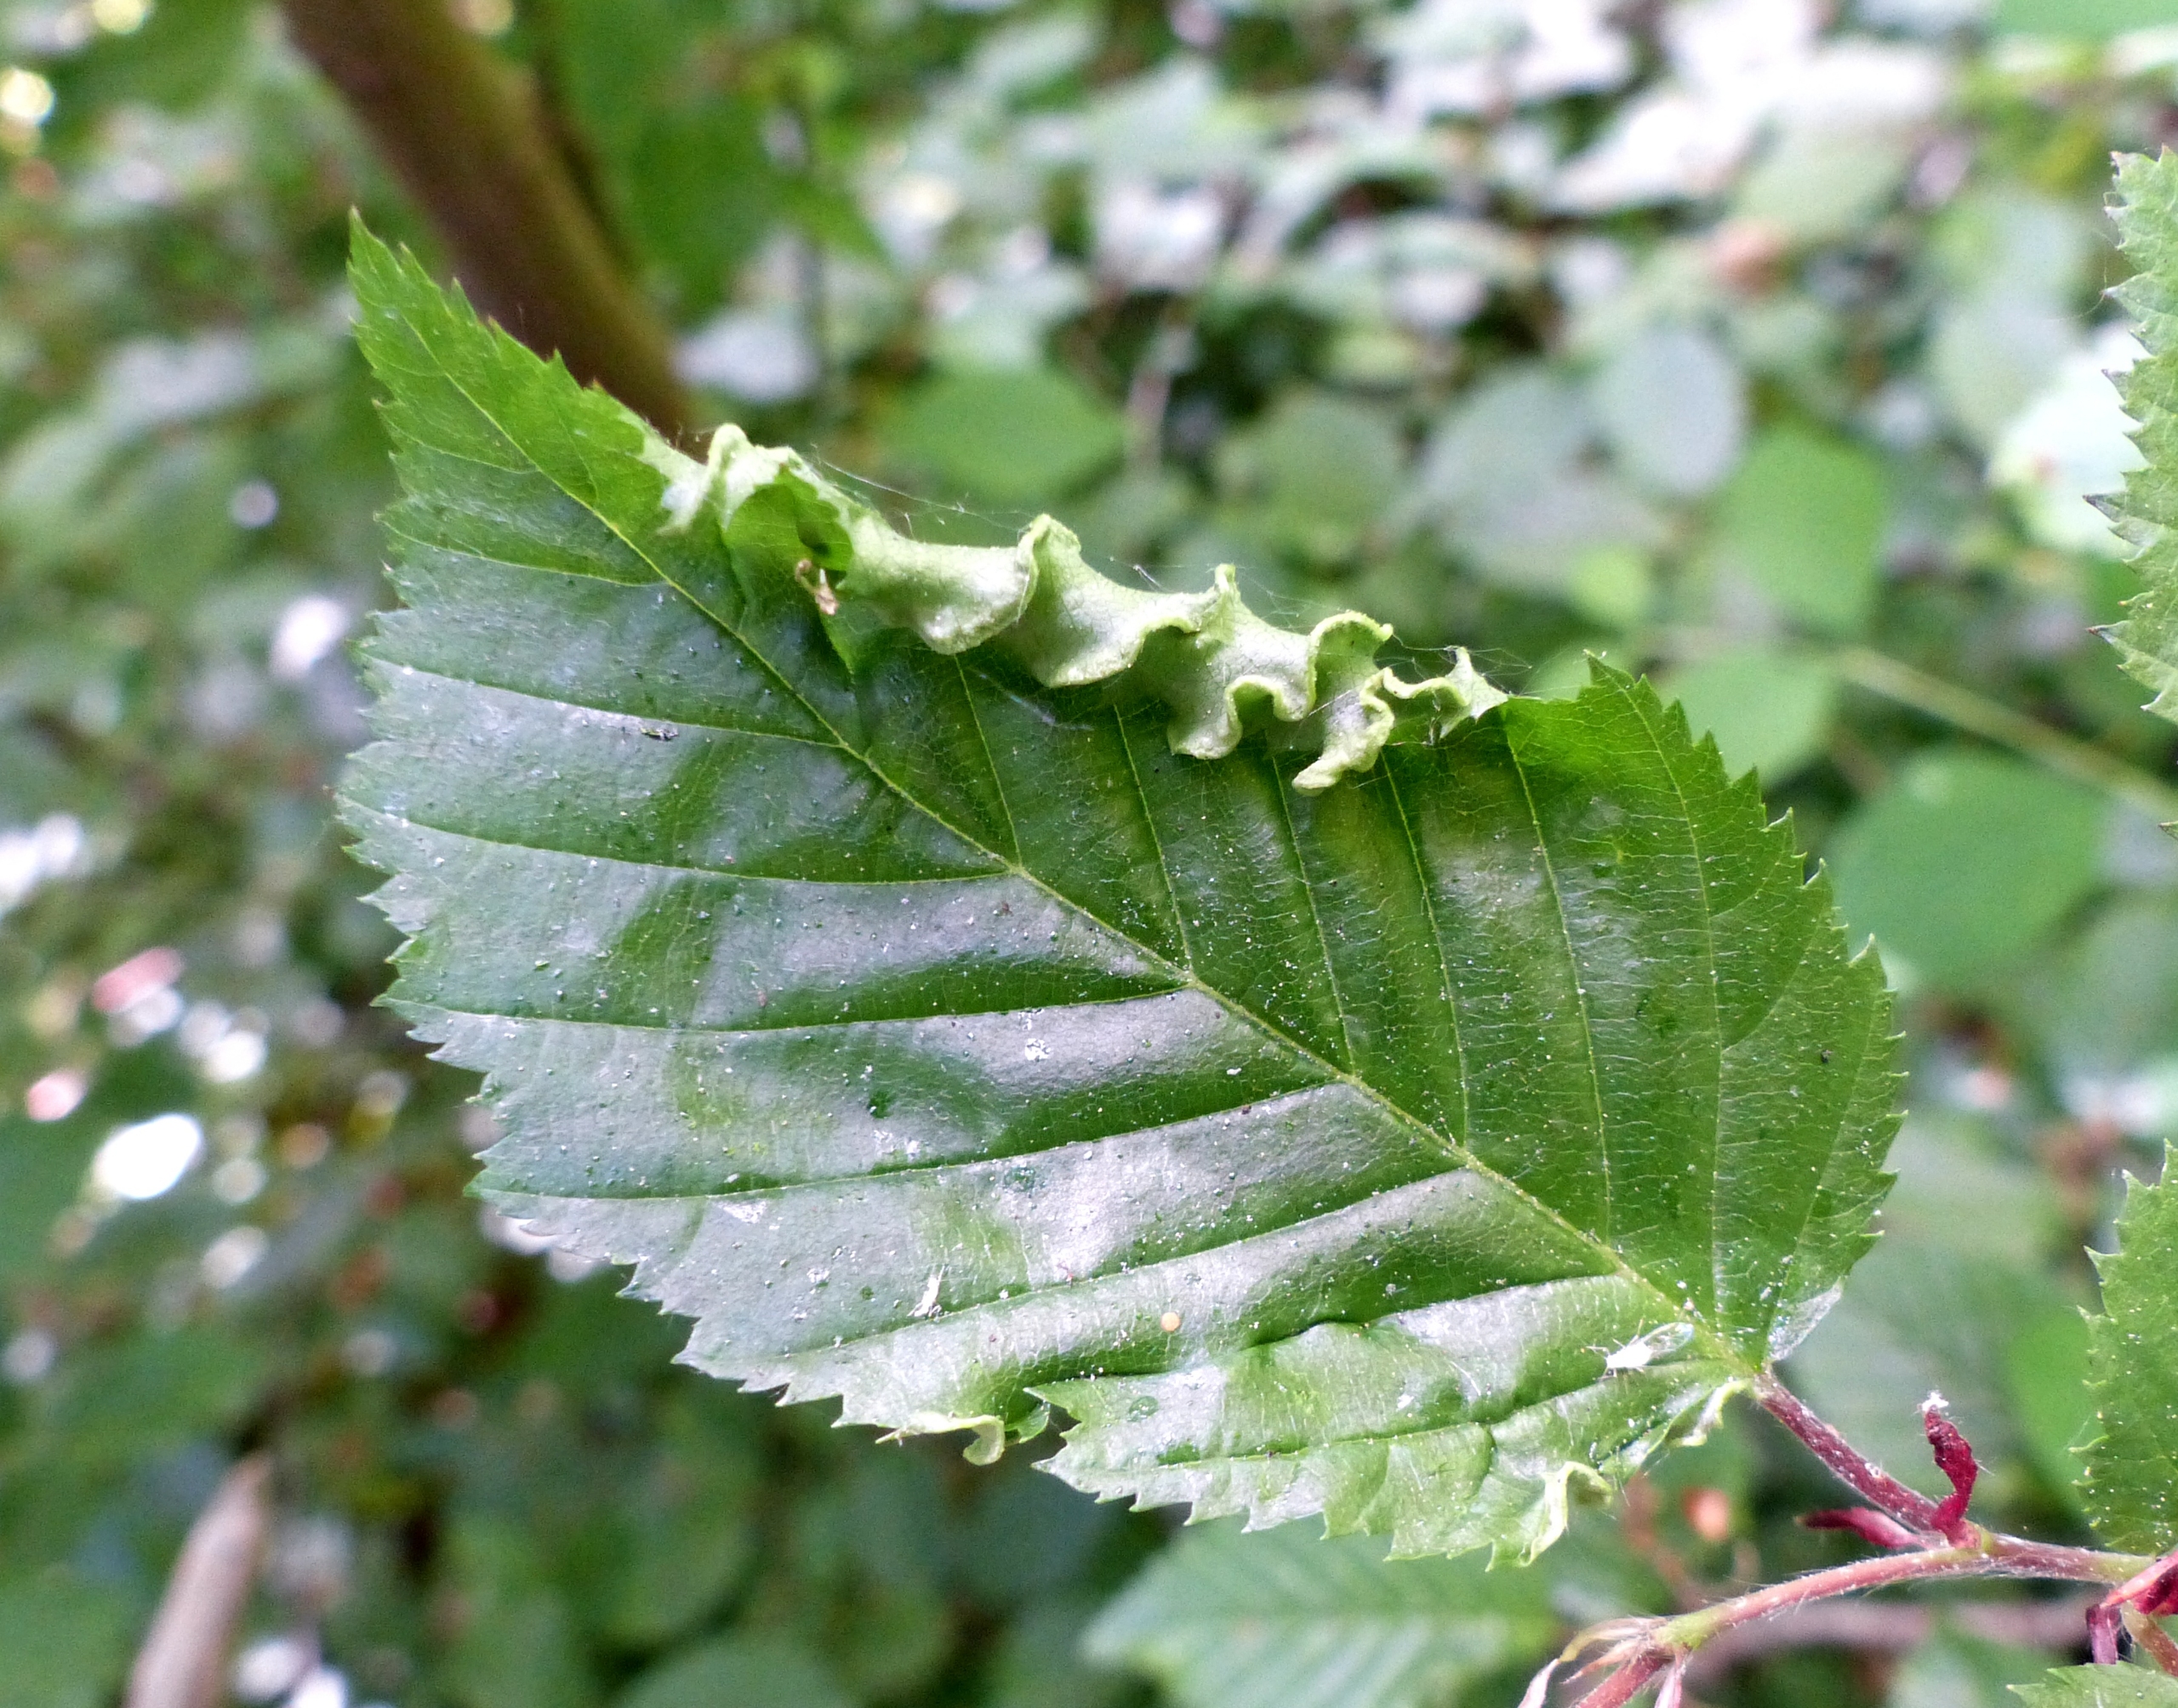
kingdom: Animalia
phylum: Arthropoda
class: Arachnida
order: Trombidiformes
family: Eriophyidae
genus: Aculops
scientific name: Aculops macrotrichus
